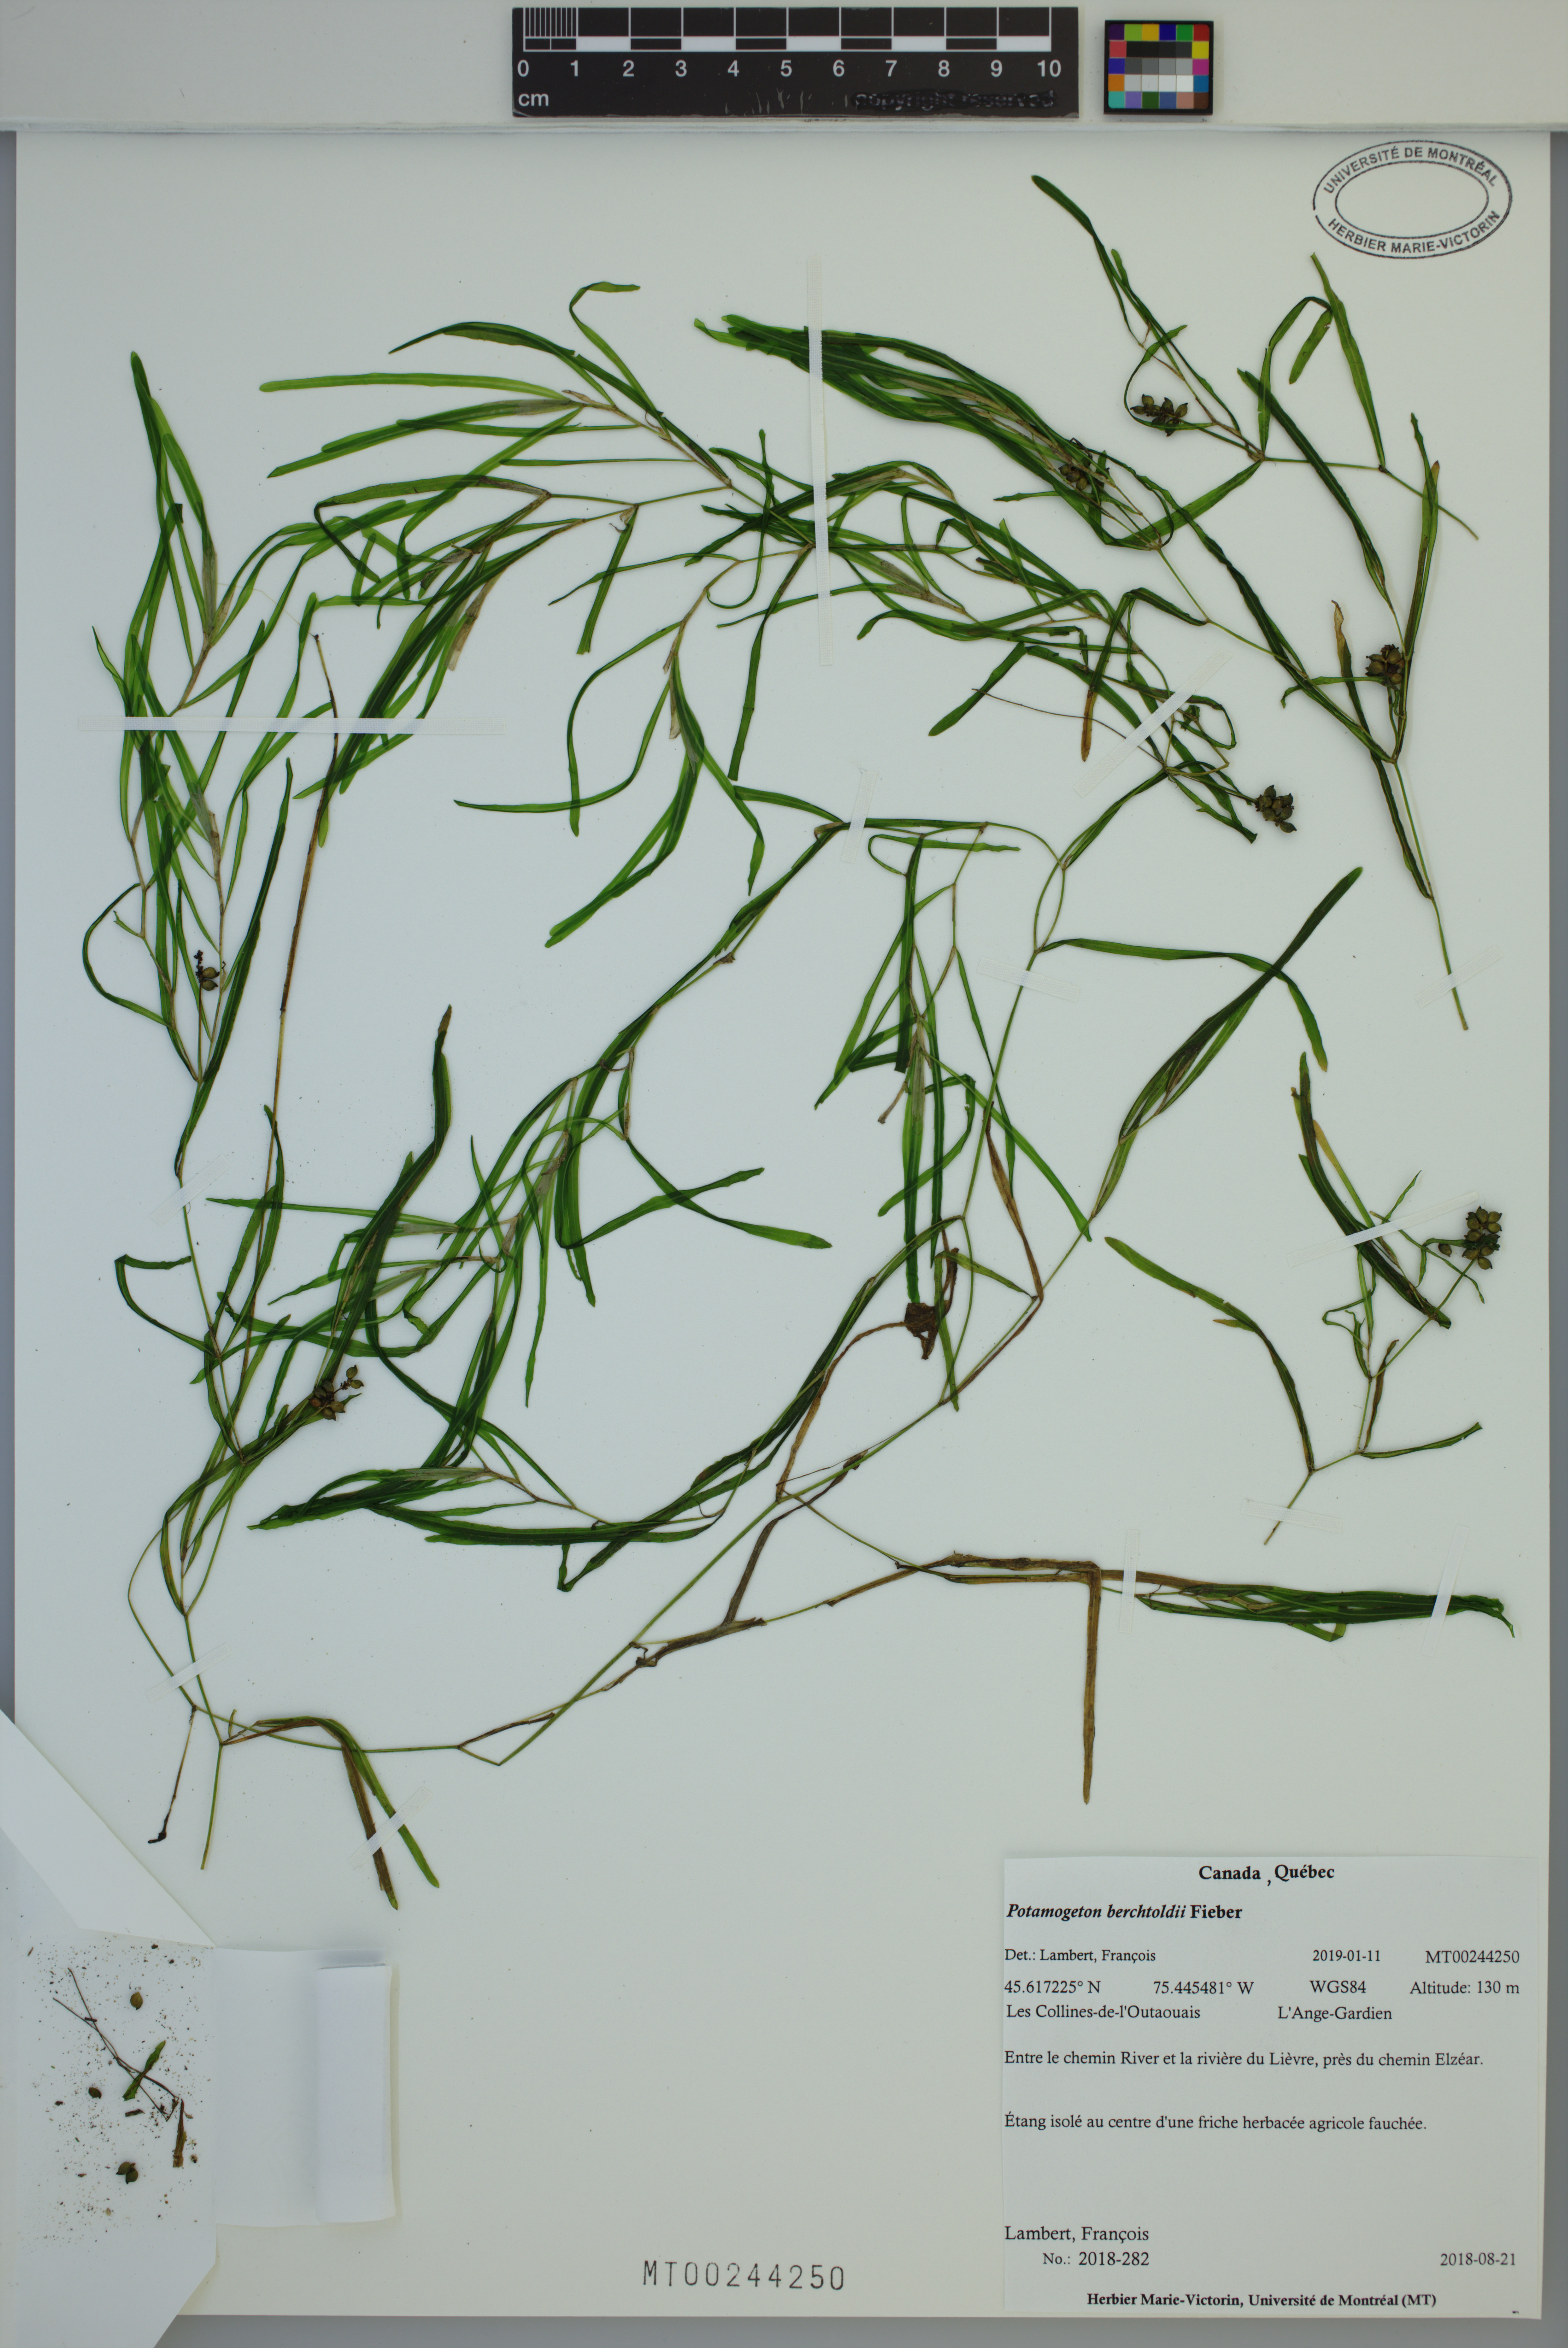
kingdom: Plantae
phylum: Tracheophyta
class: Liliopsida
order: Alismatales
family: Potamogetonaceae
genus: Potamogeton
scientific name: Potamogeton berchtoldii
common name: Small pondweed
